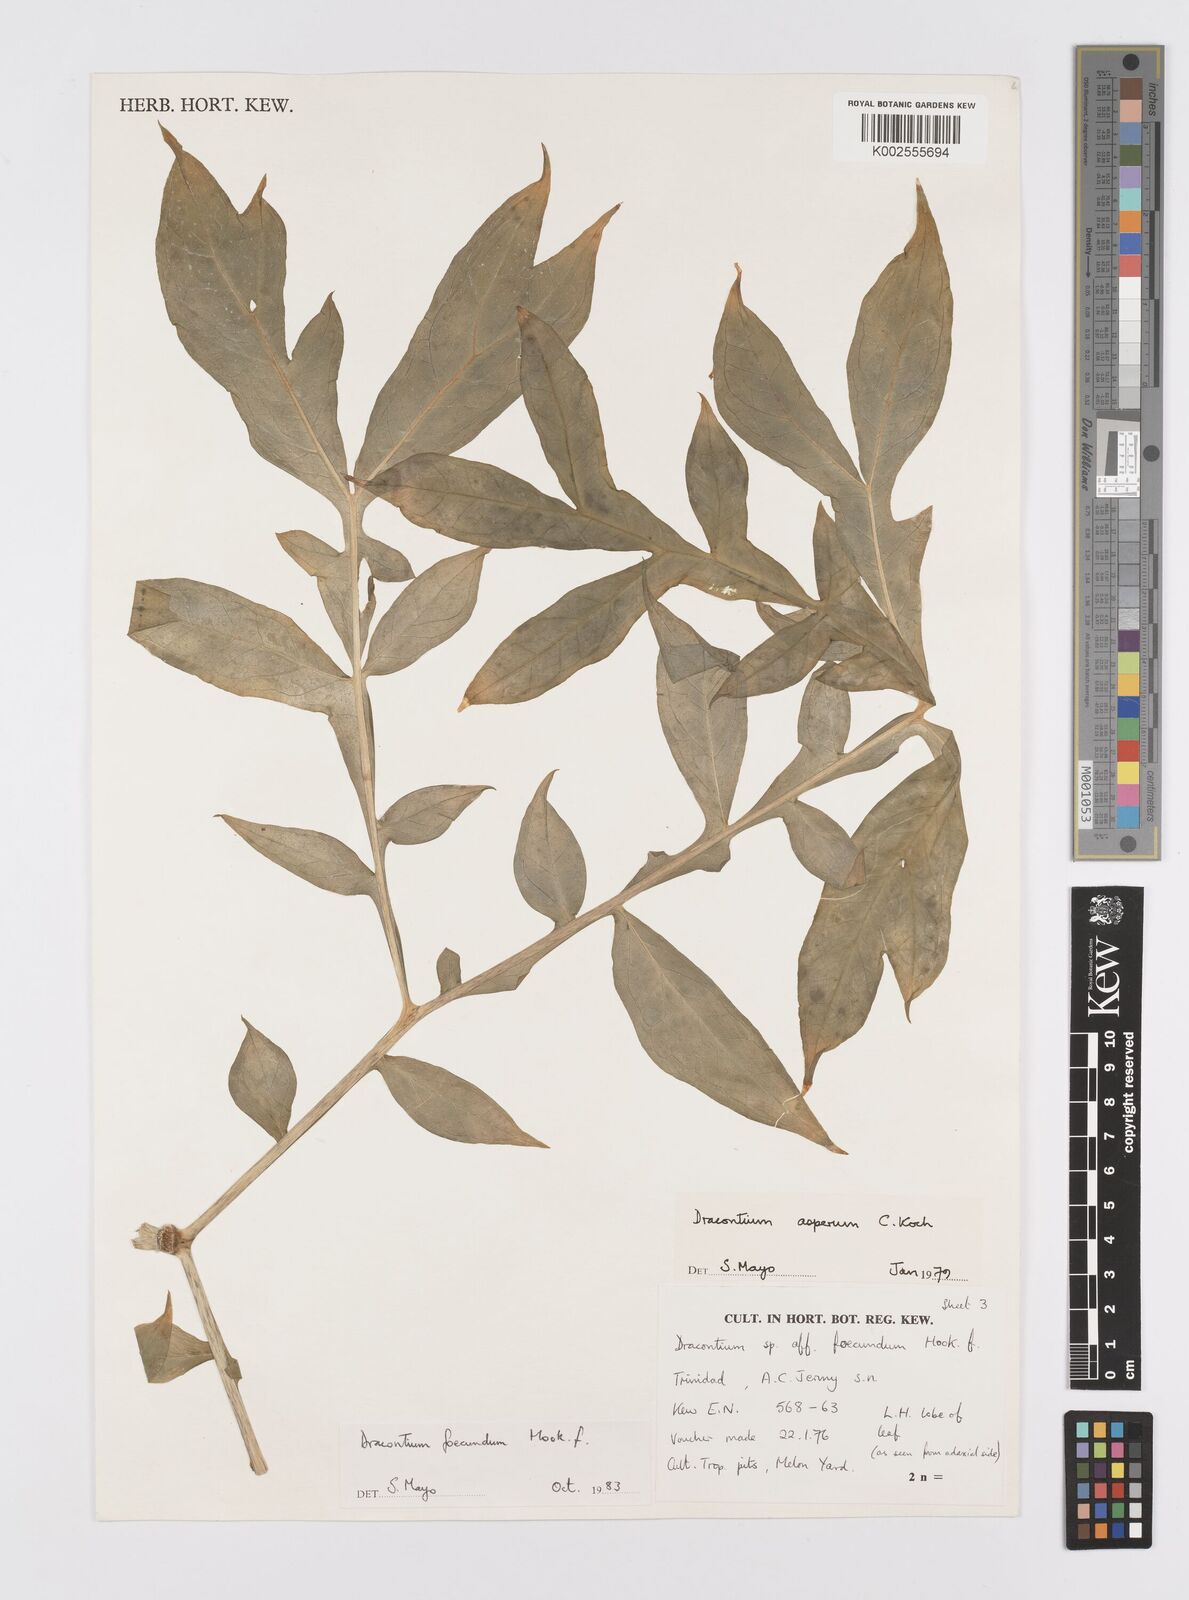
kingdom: Plantae
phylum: Tracheophyta
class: Liliopsida
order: Alismatales
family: Araceae
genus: Dracontium
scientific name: Dracontium asperum
